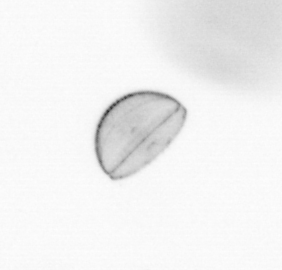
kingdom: Chromista
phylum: Ochrophyta
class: Bacillariophyceae
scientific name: Bacillariophyceae
